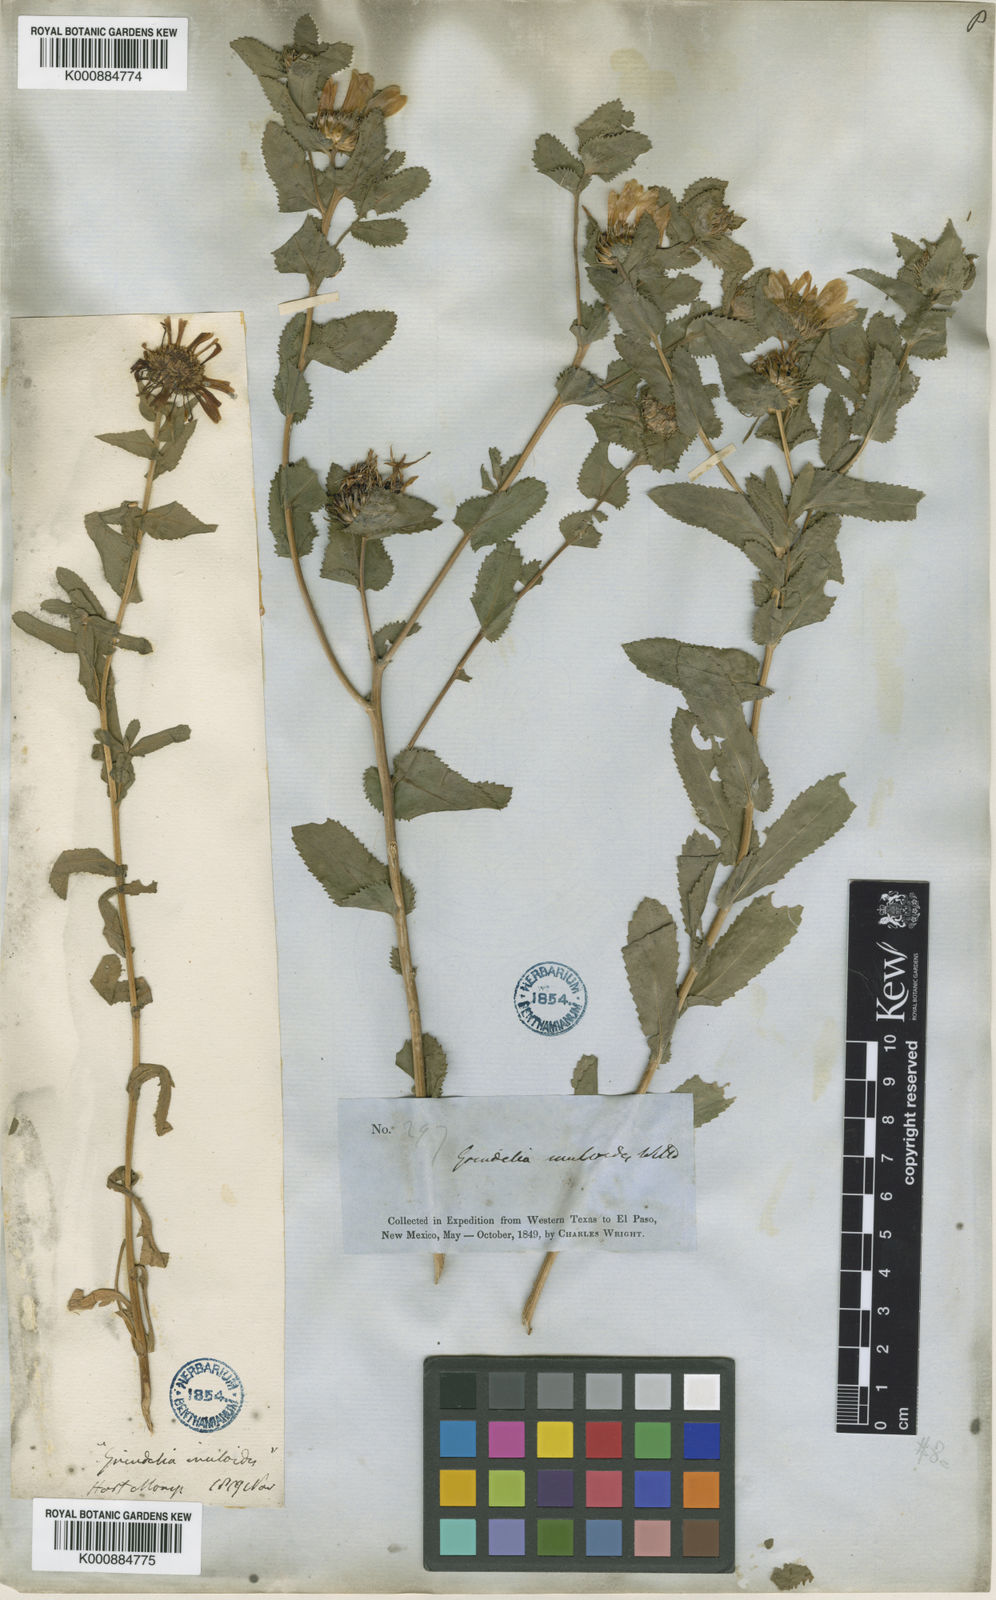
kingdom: Plantae
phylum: Tracheophyta
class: Magnoliopsida
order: Asterales
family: Asteraceae
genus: Grindelia
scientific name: Grindelia adenodonta
